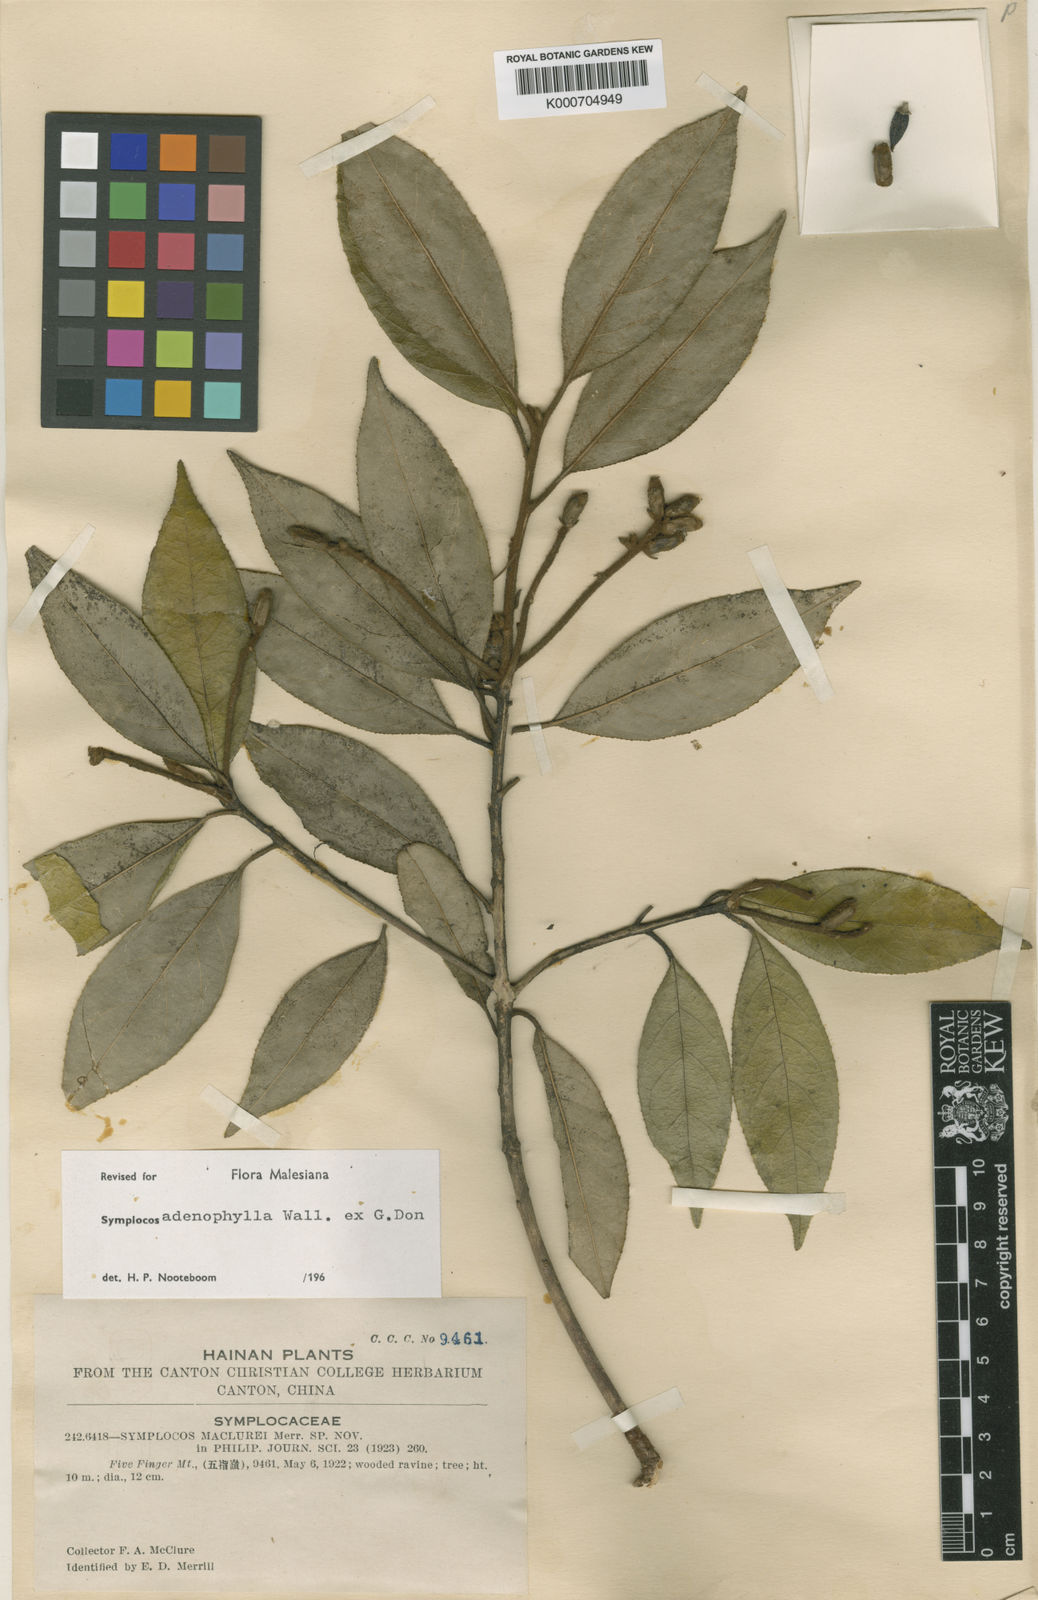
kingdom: Plantae
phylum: Tracheophyta
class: Magnoliopsida
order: Ericales
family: Symplocaceae
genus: Symplocos
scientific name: Symplocos
